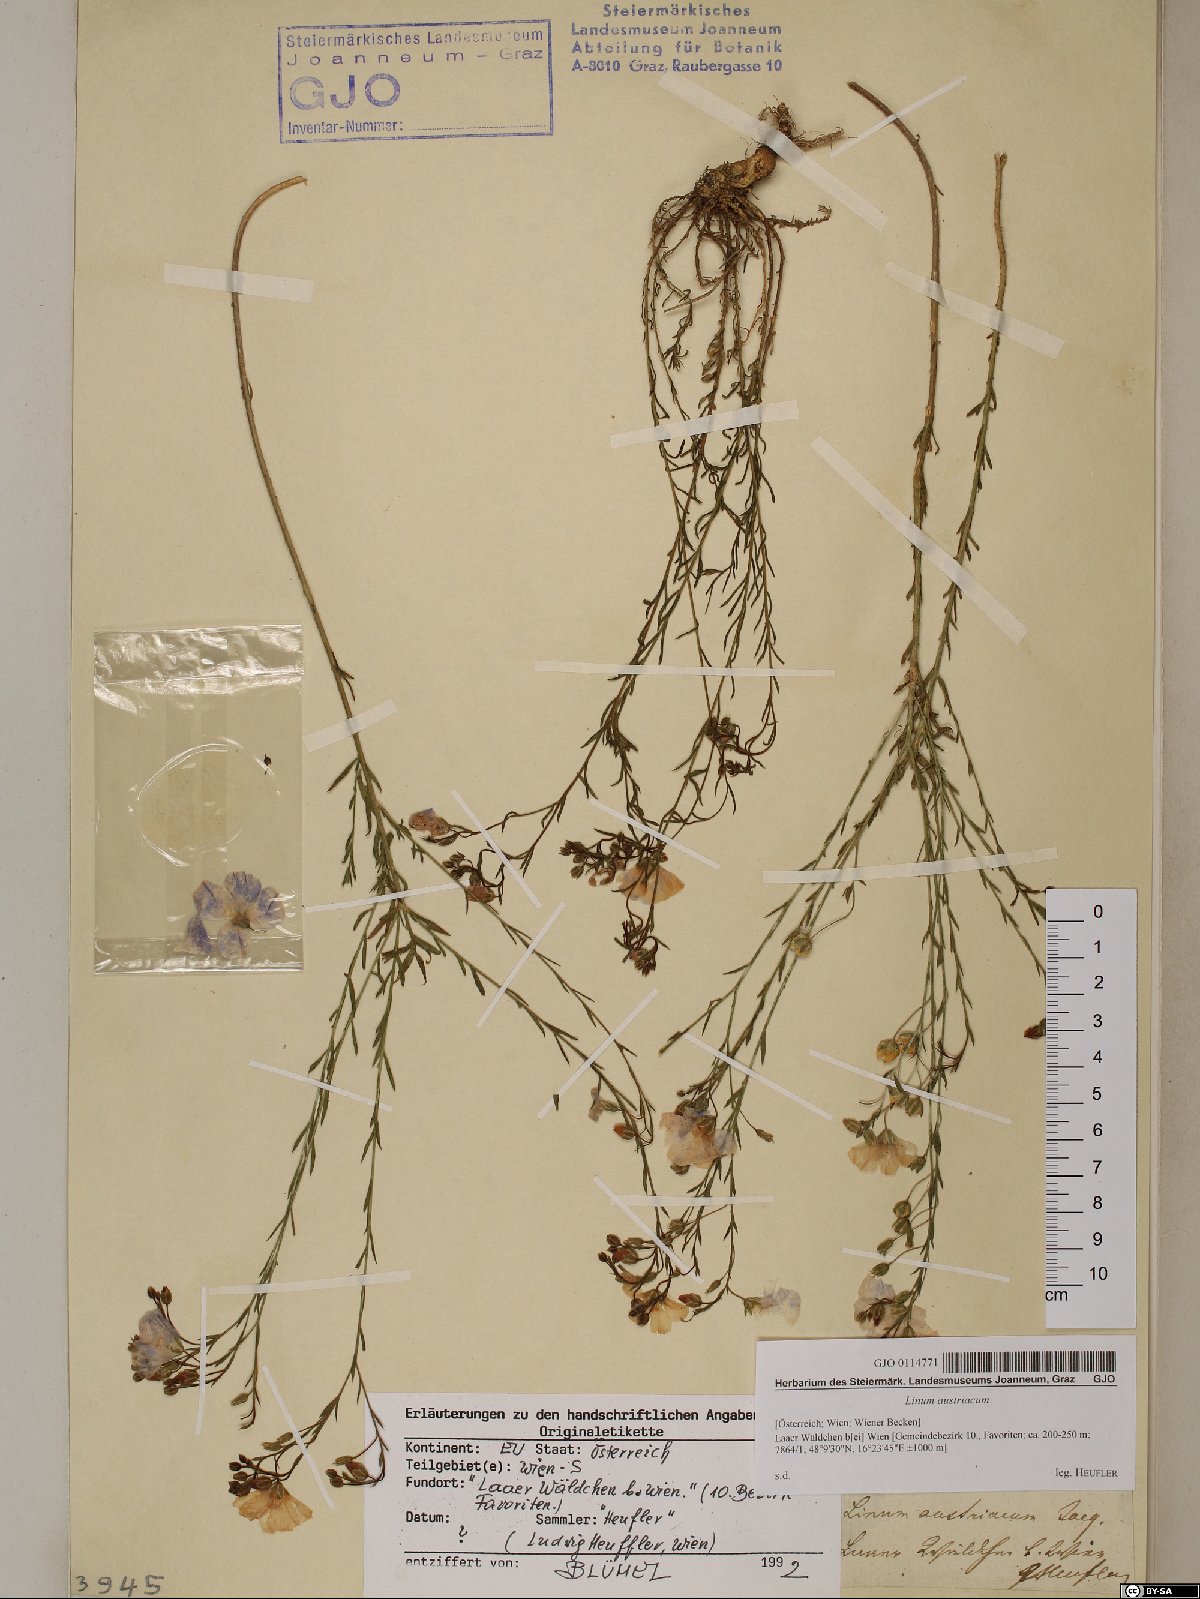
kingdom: Plantae
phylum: Tracheophyta
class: Magnoliopsida
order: Malpighiales
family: Linaceae
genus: Linum
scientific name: Linum austriacum
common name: Austrian flax
